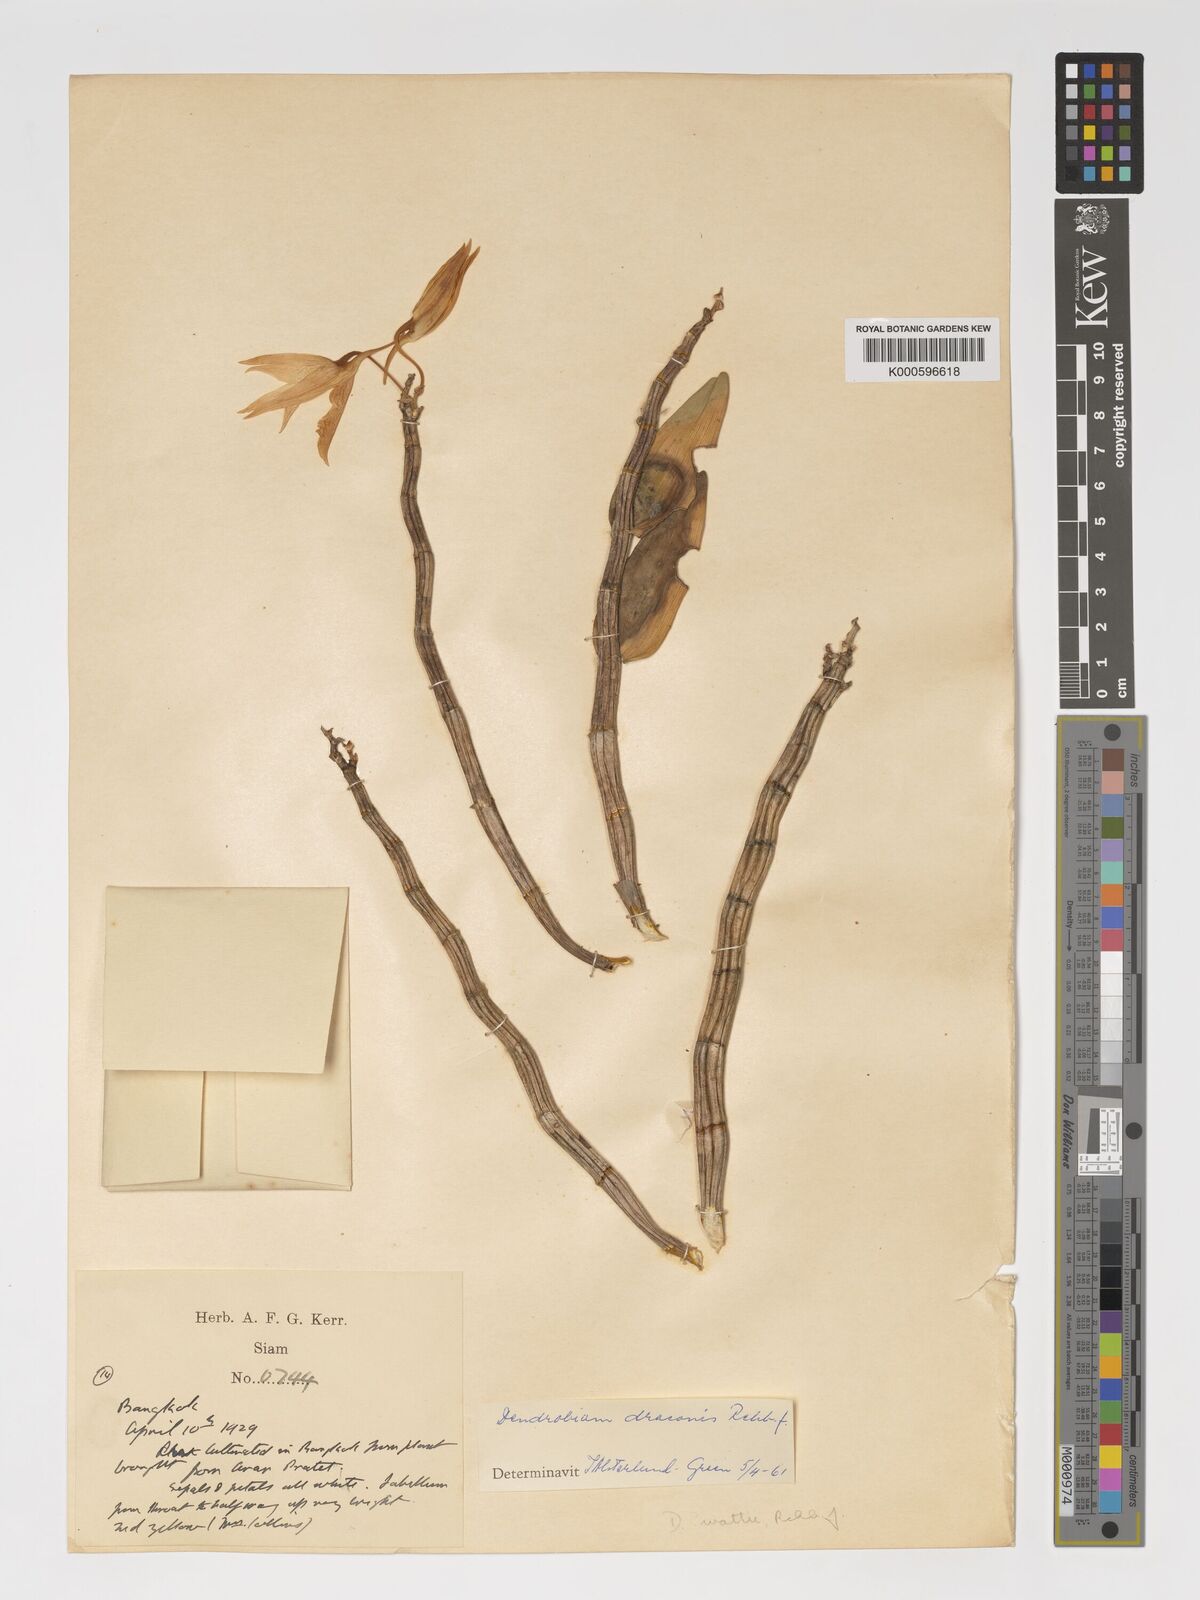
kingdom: Plantae
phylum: Tracheophyta
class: Liliopsida
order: Asparagales
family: Orchidaceae
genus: Dendrobium
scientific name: Dendrobium draconis
